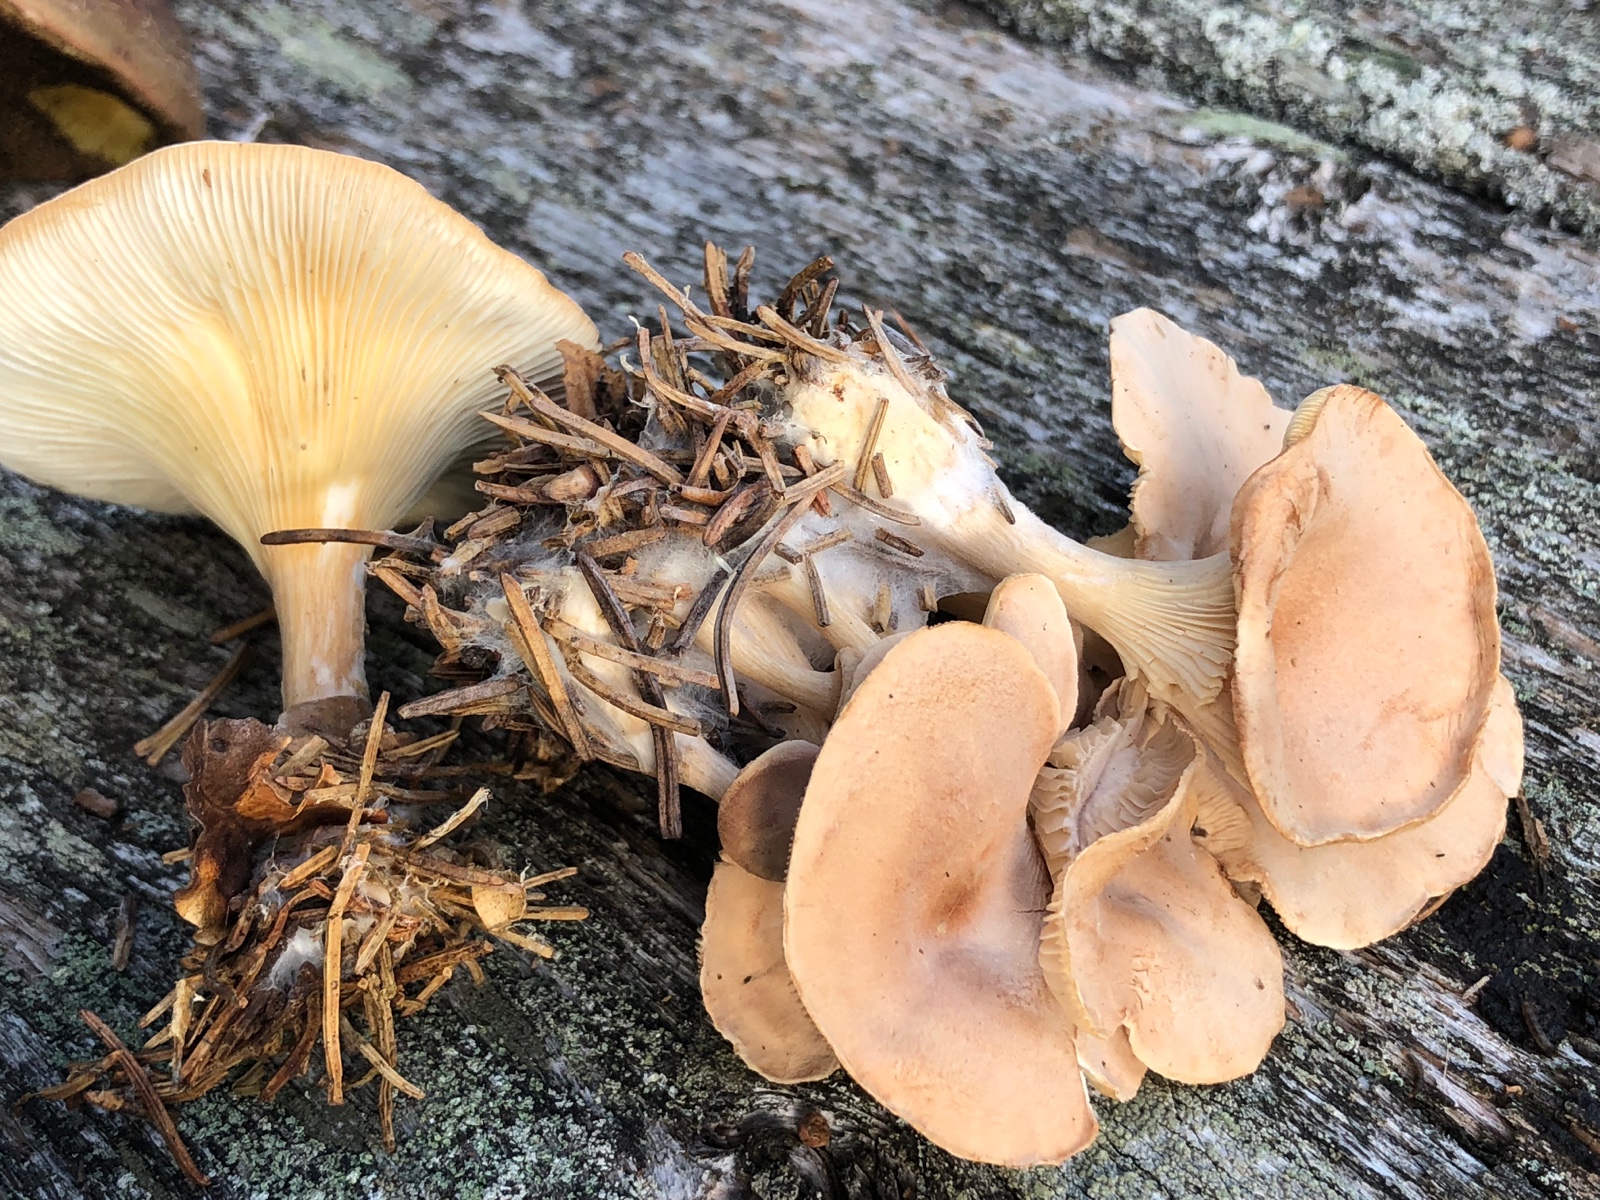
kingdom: Fungi
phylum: Basidiomycota
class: Agaricomycetes
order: Agaricales
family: Tricholomataceae
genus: Paralepista
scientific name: Paralepista flaccida
